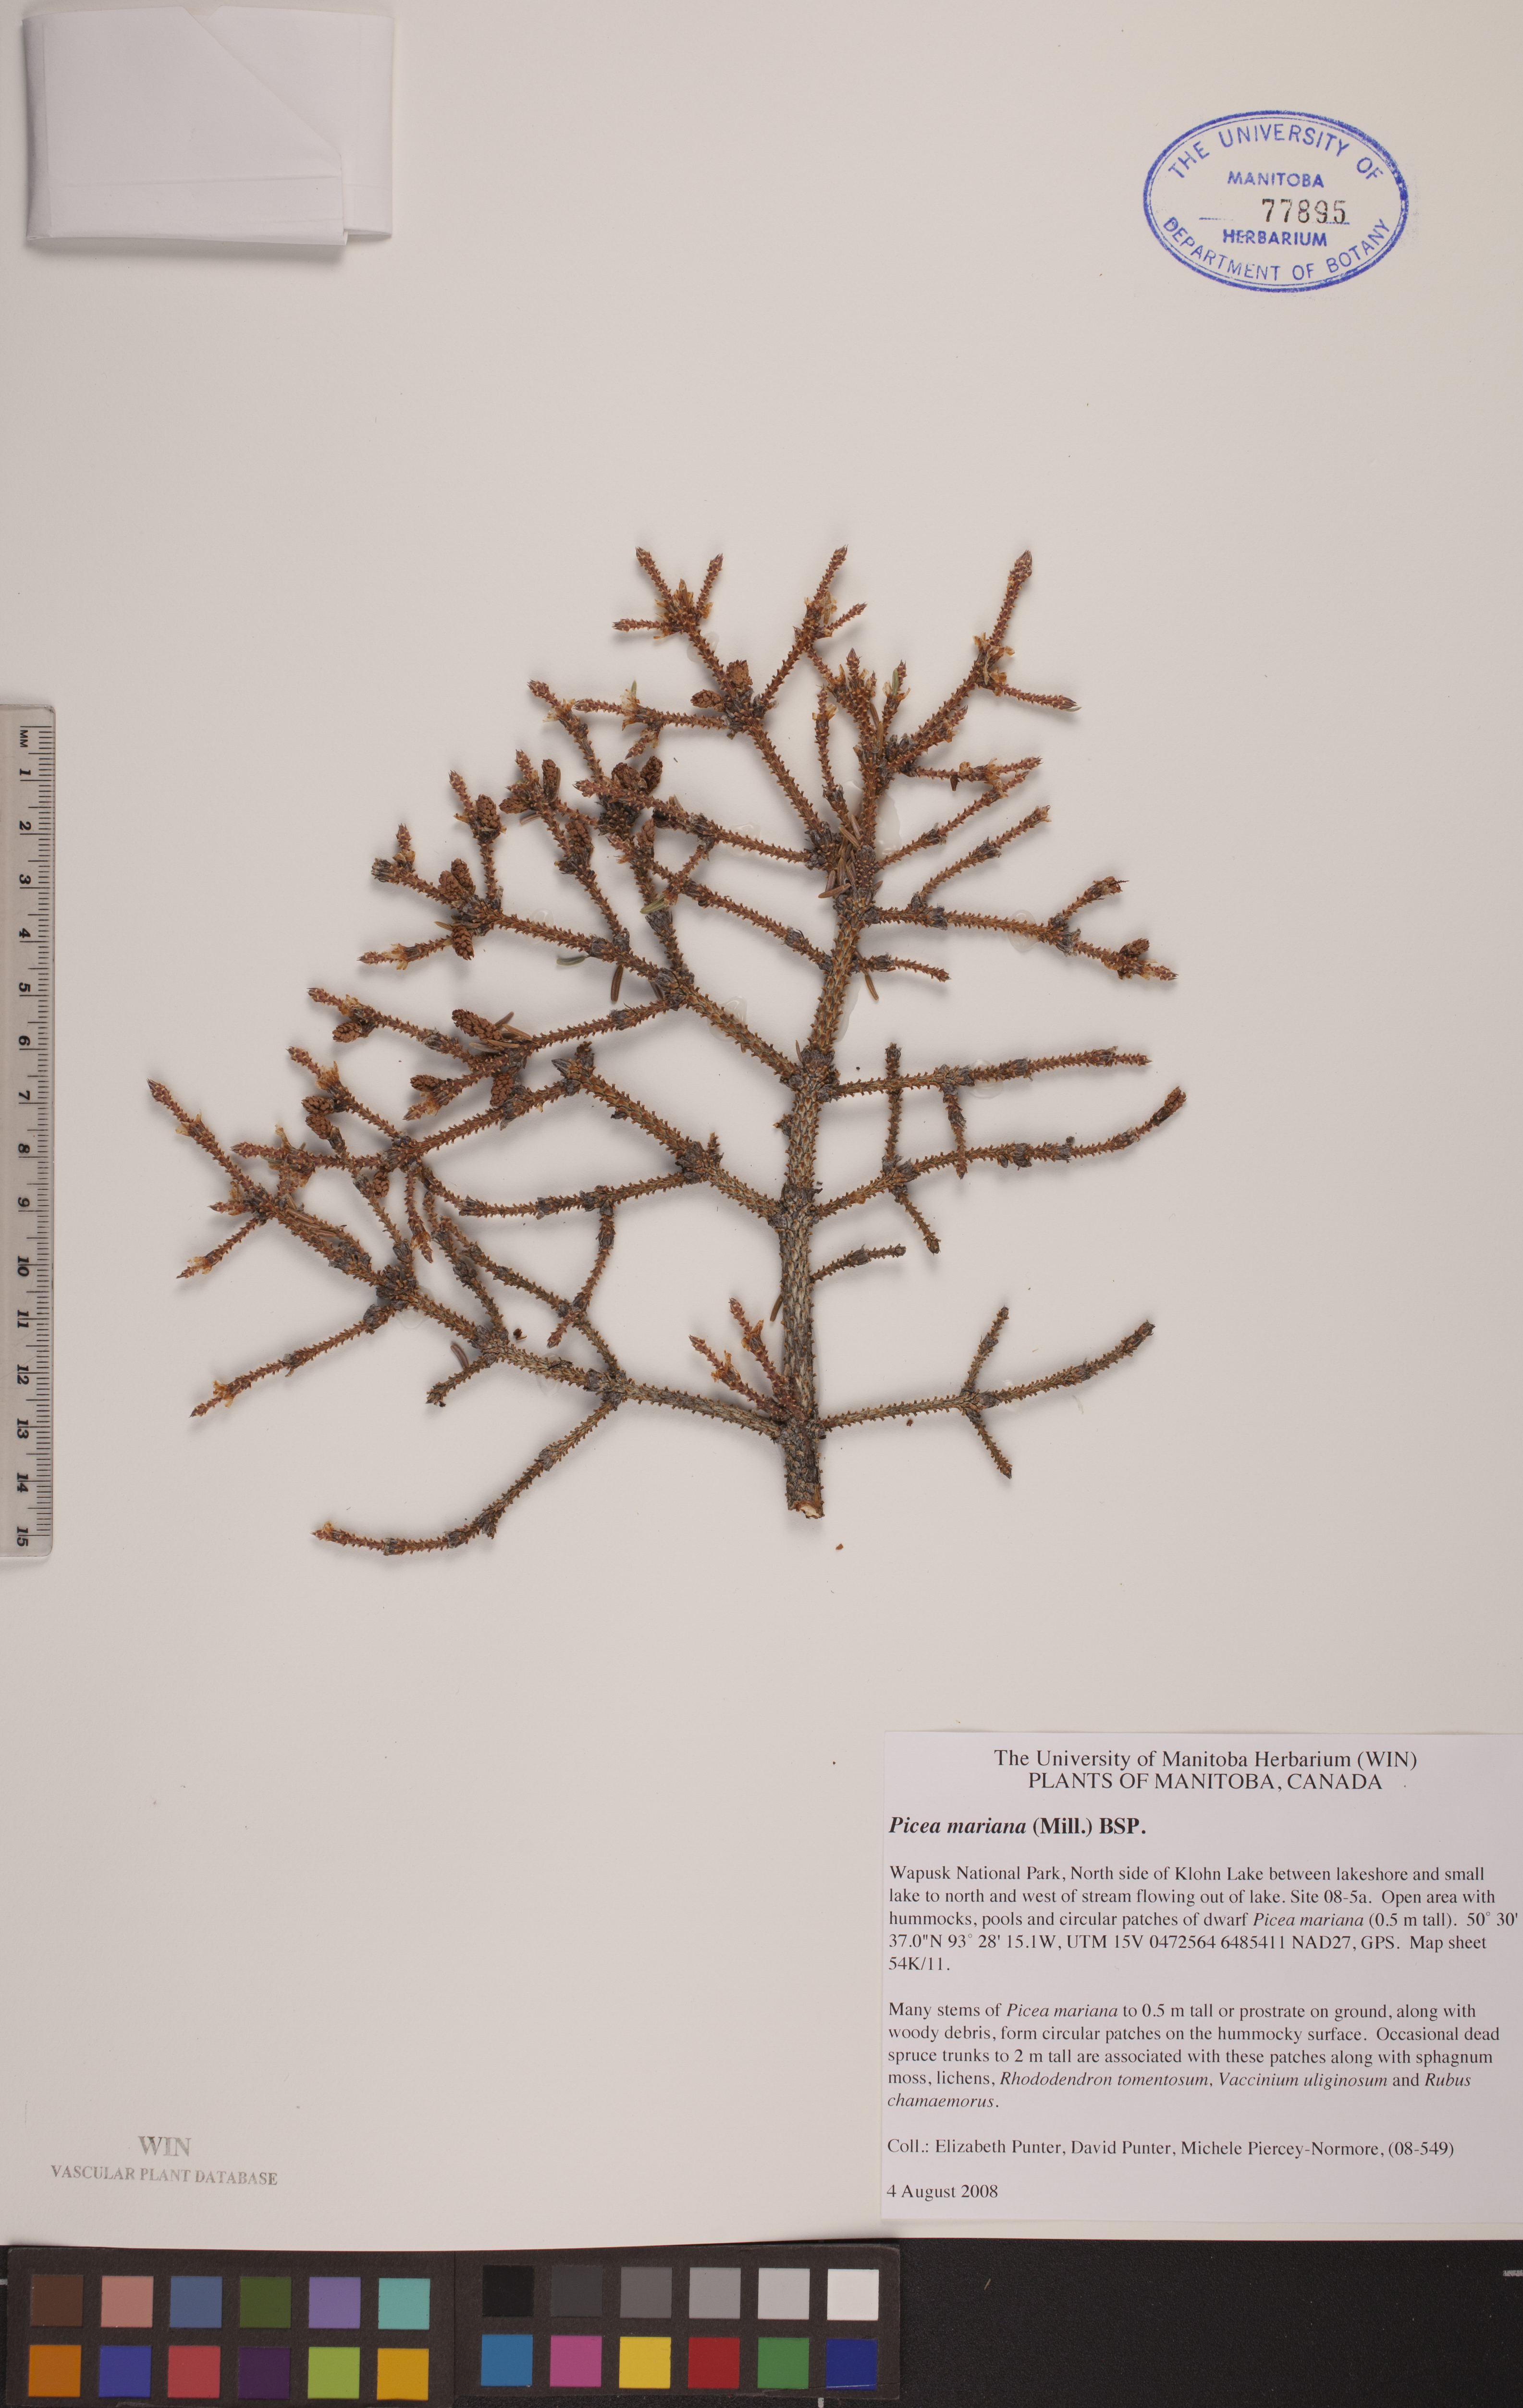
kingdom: Plantae
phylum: Tracheophyta
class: Pinopsida
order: Pinales
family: Pinaceae
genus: Picea
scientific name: Picea mariana
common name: Black spruce
